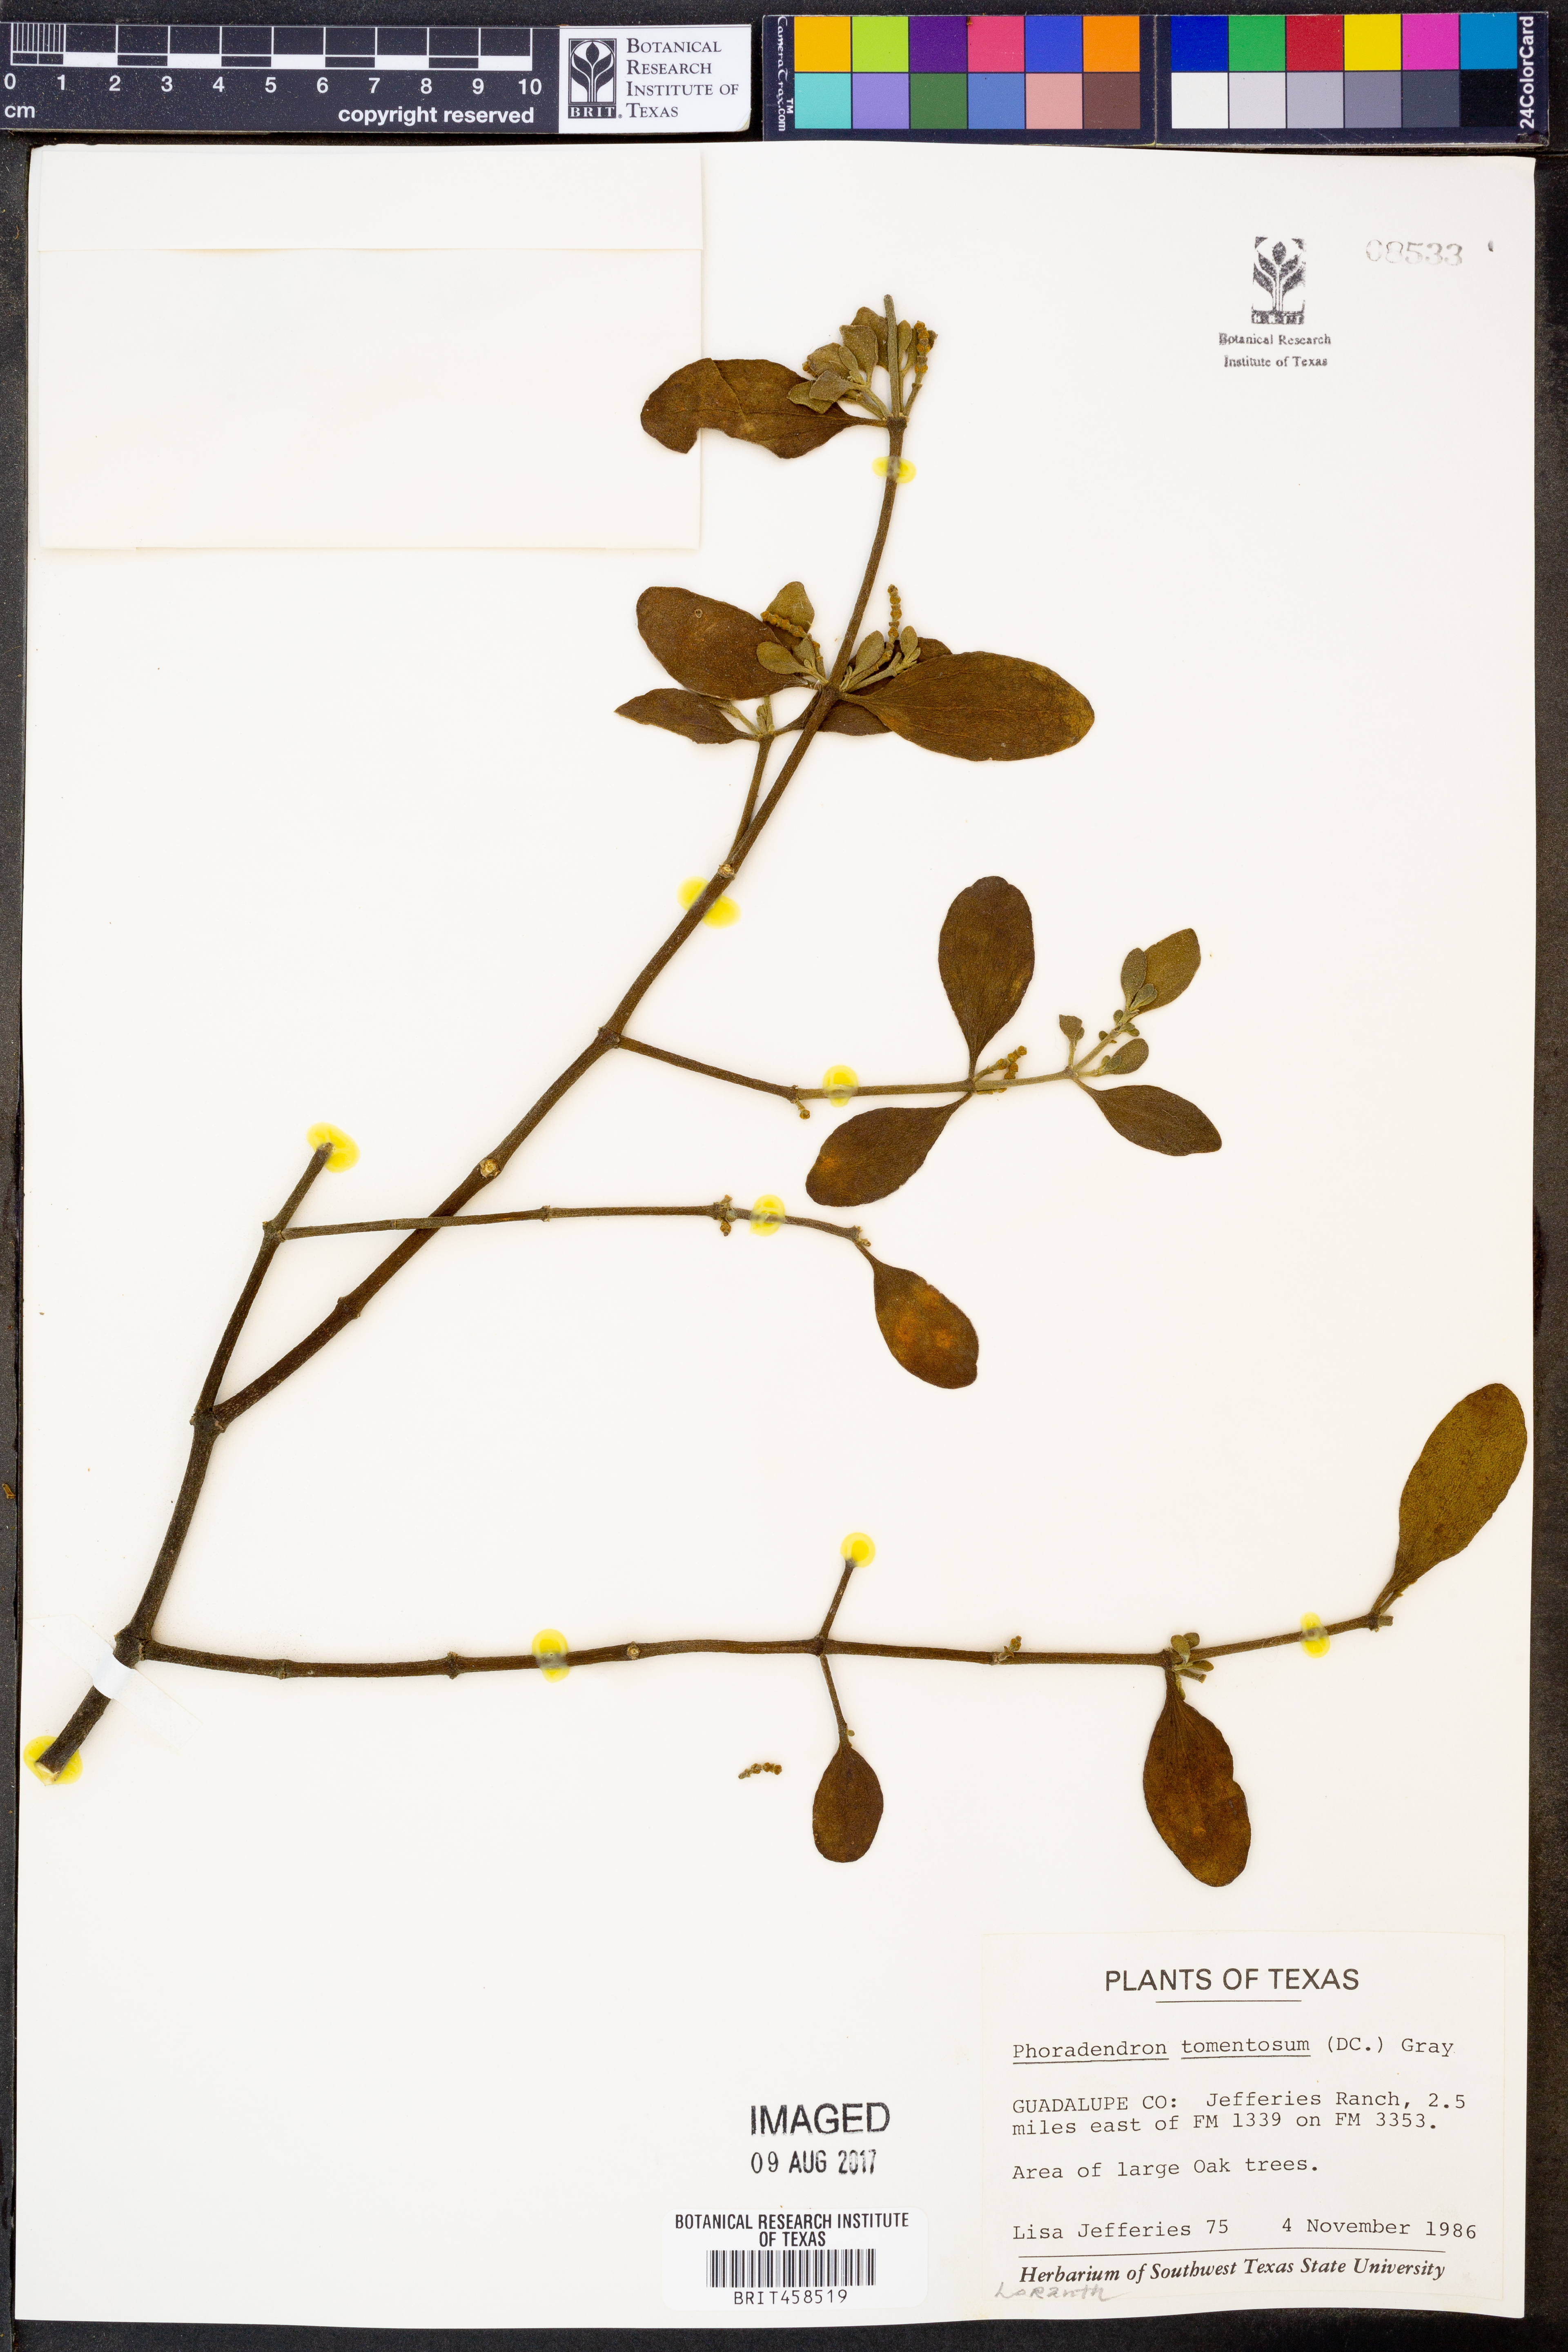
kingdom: Plantae
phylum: Tracheophyta
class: Magnoliopsida
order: Santalales
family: Viscaceae
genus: Phoradendron
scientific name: Phoradendron leucarpum
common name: Pacific mistletoe
